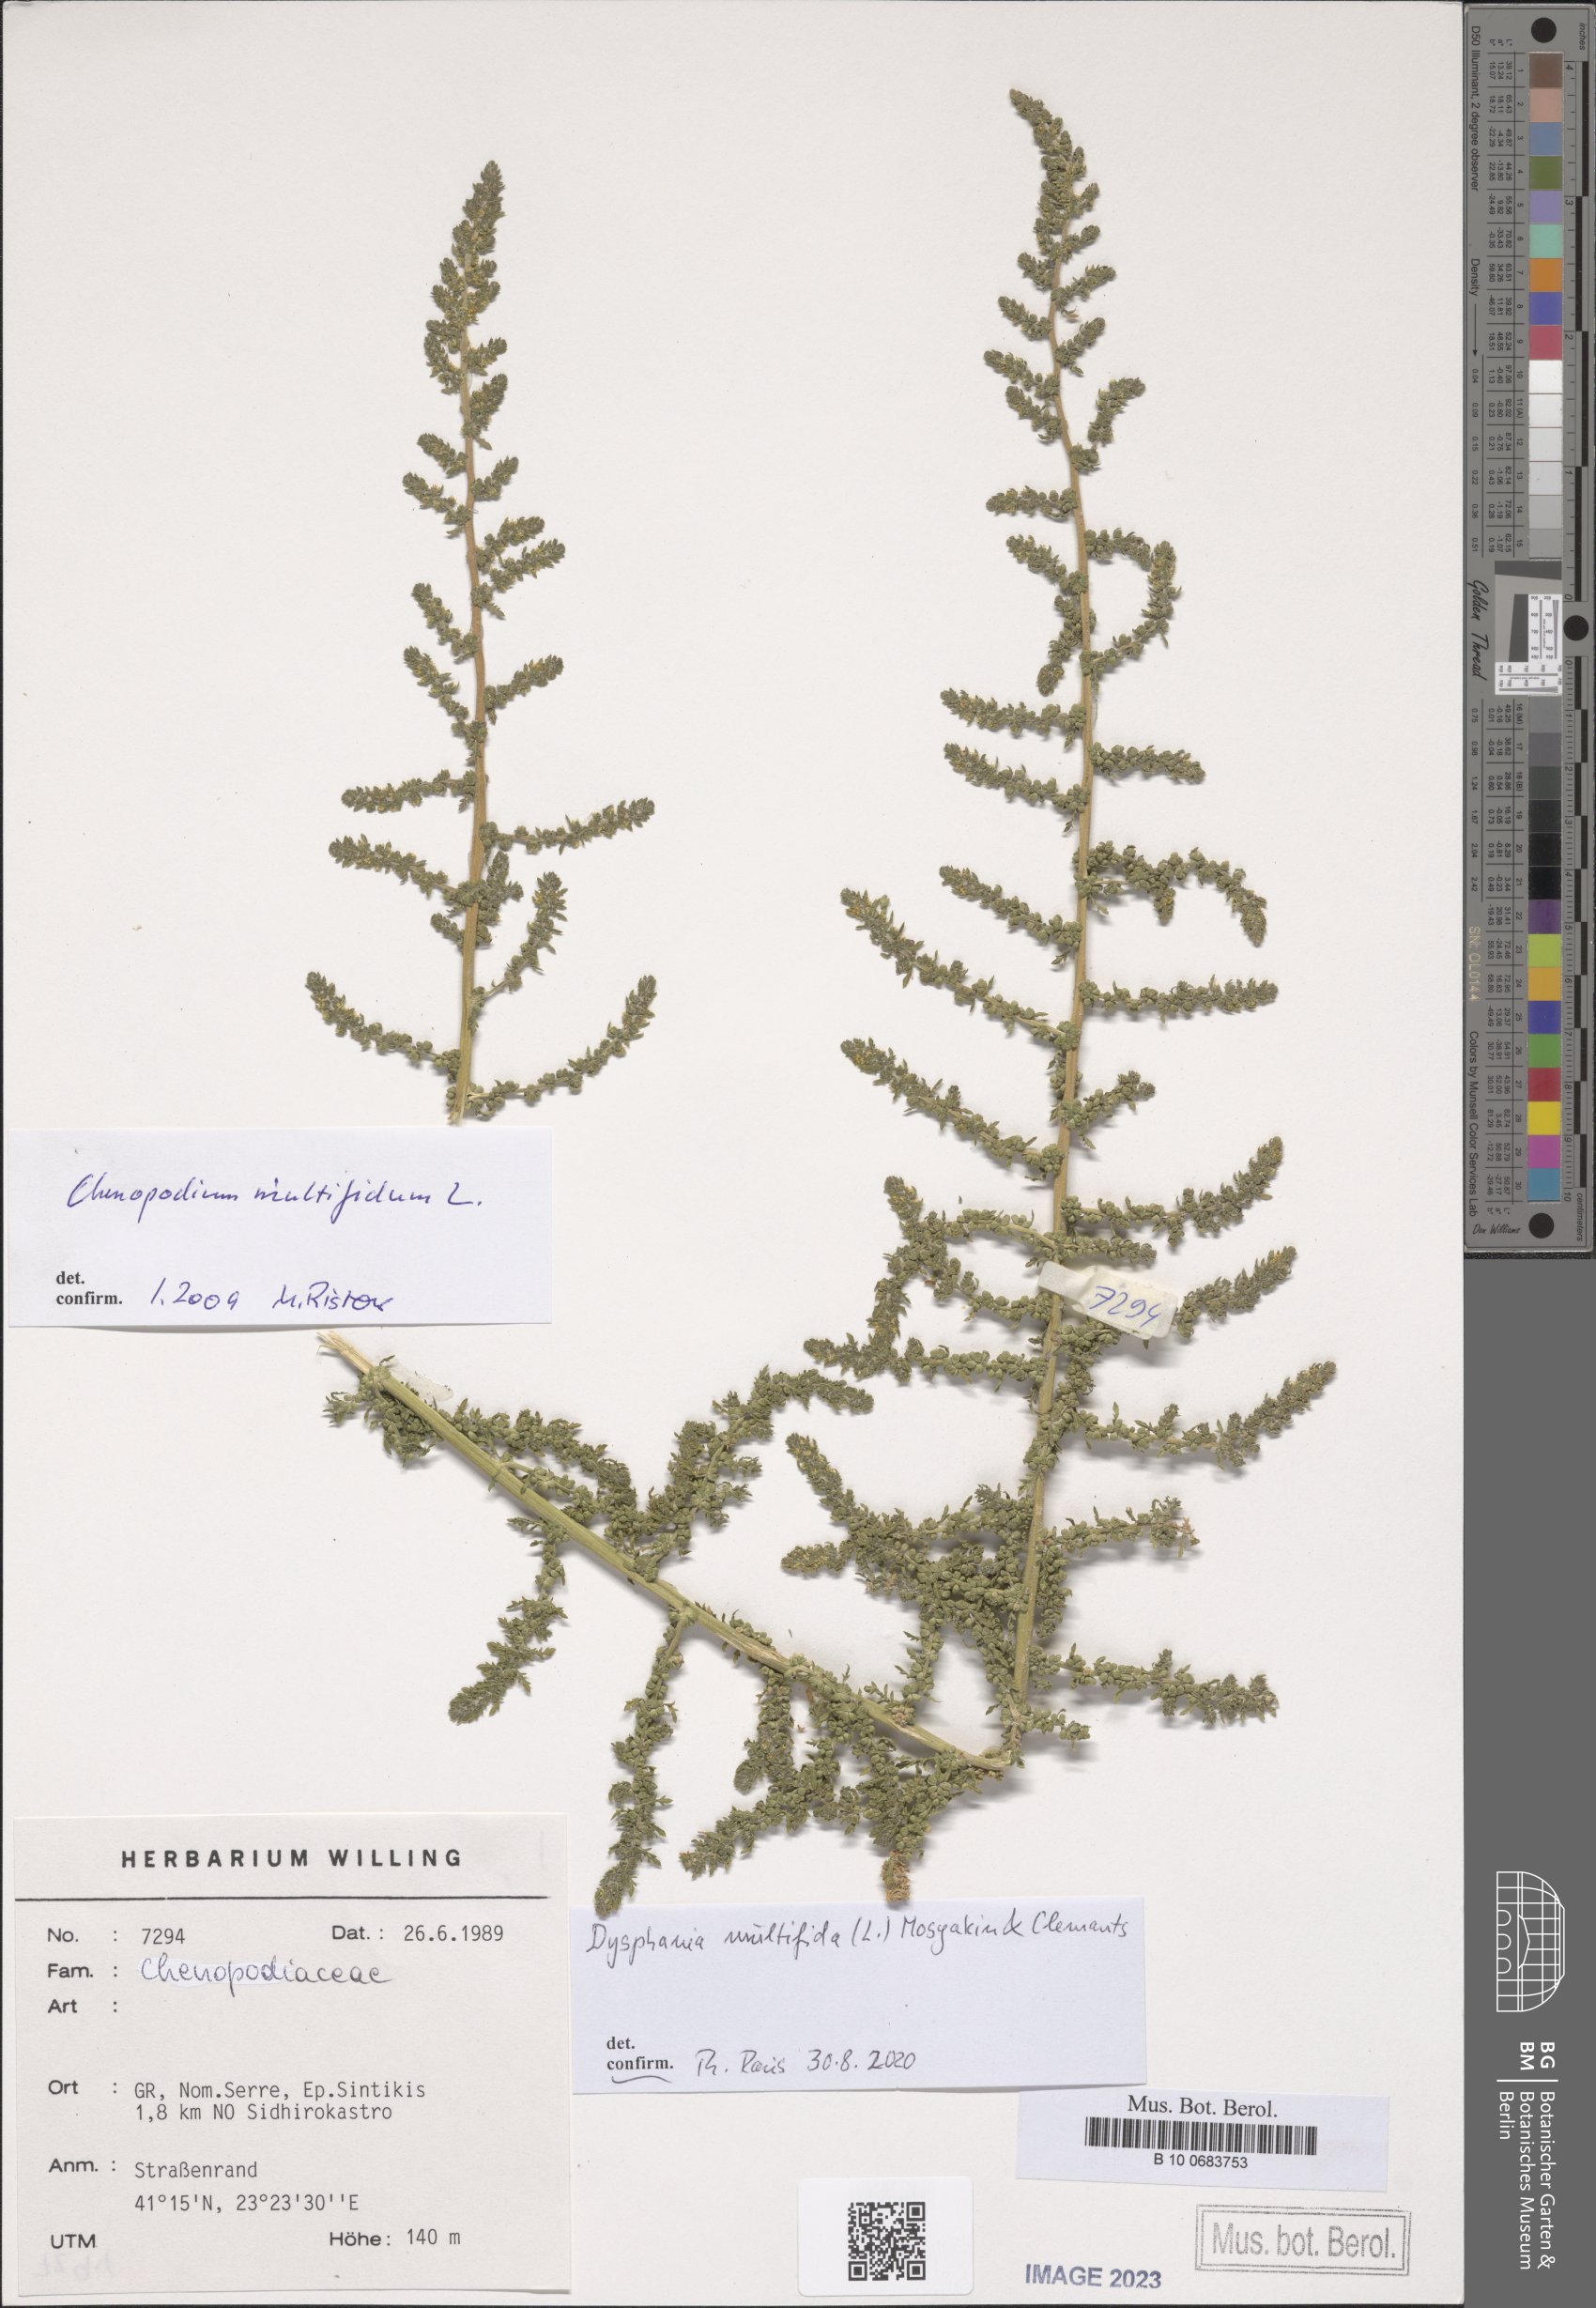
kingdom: Plantae
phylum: Tracheophyta
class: Magnoliopsida
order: Caryophyllales
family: Amaranthaceae
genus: Dysphania
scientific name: Dysphania multifida
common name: Cutleaf goosefoot
